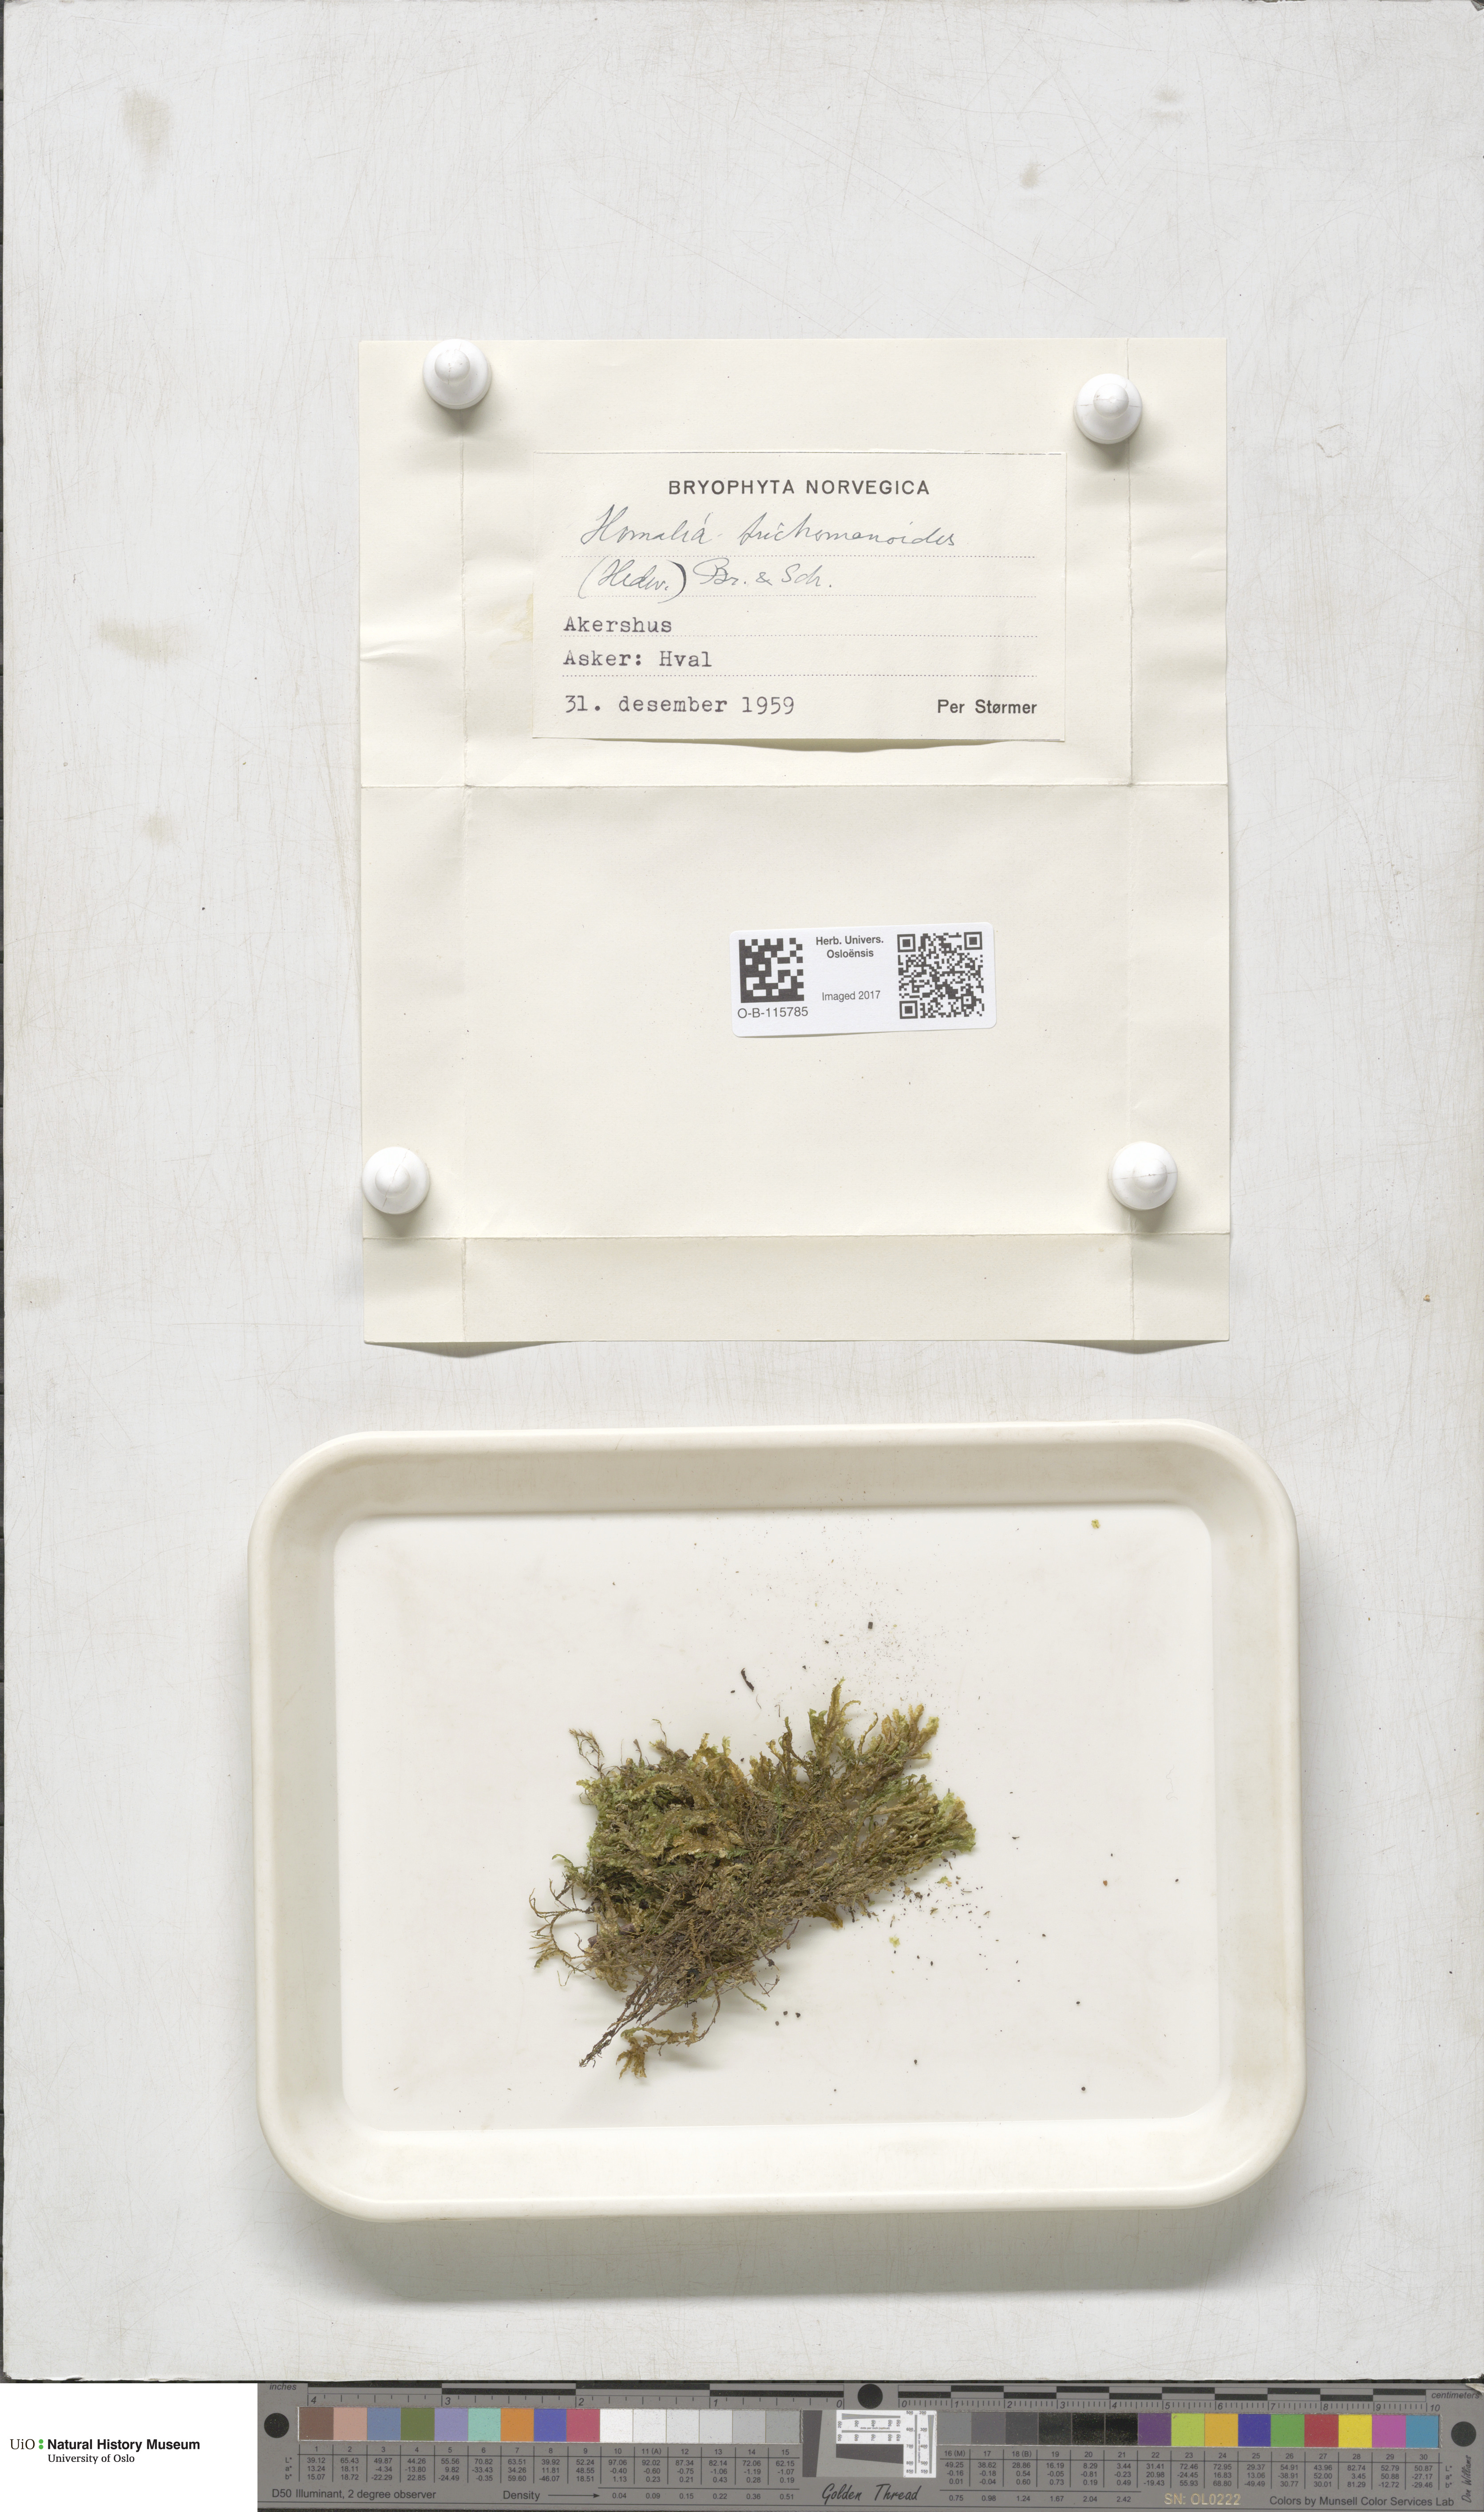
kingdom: Plantae
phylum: Bryophyta
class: Bryopsida
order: Hypnales
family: Neckeraceae
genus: Homalia
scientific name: Homalia trichomanoides
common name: Lime homalia moss
